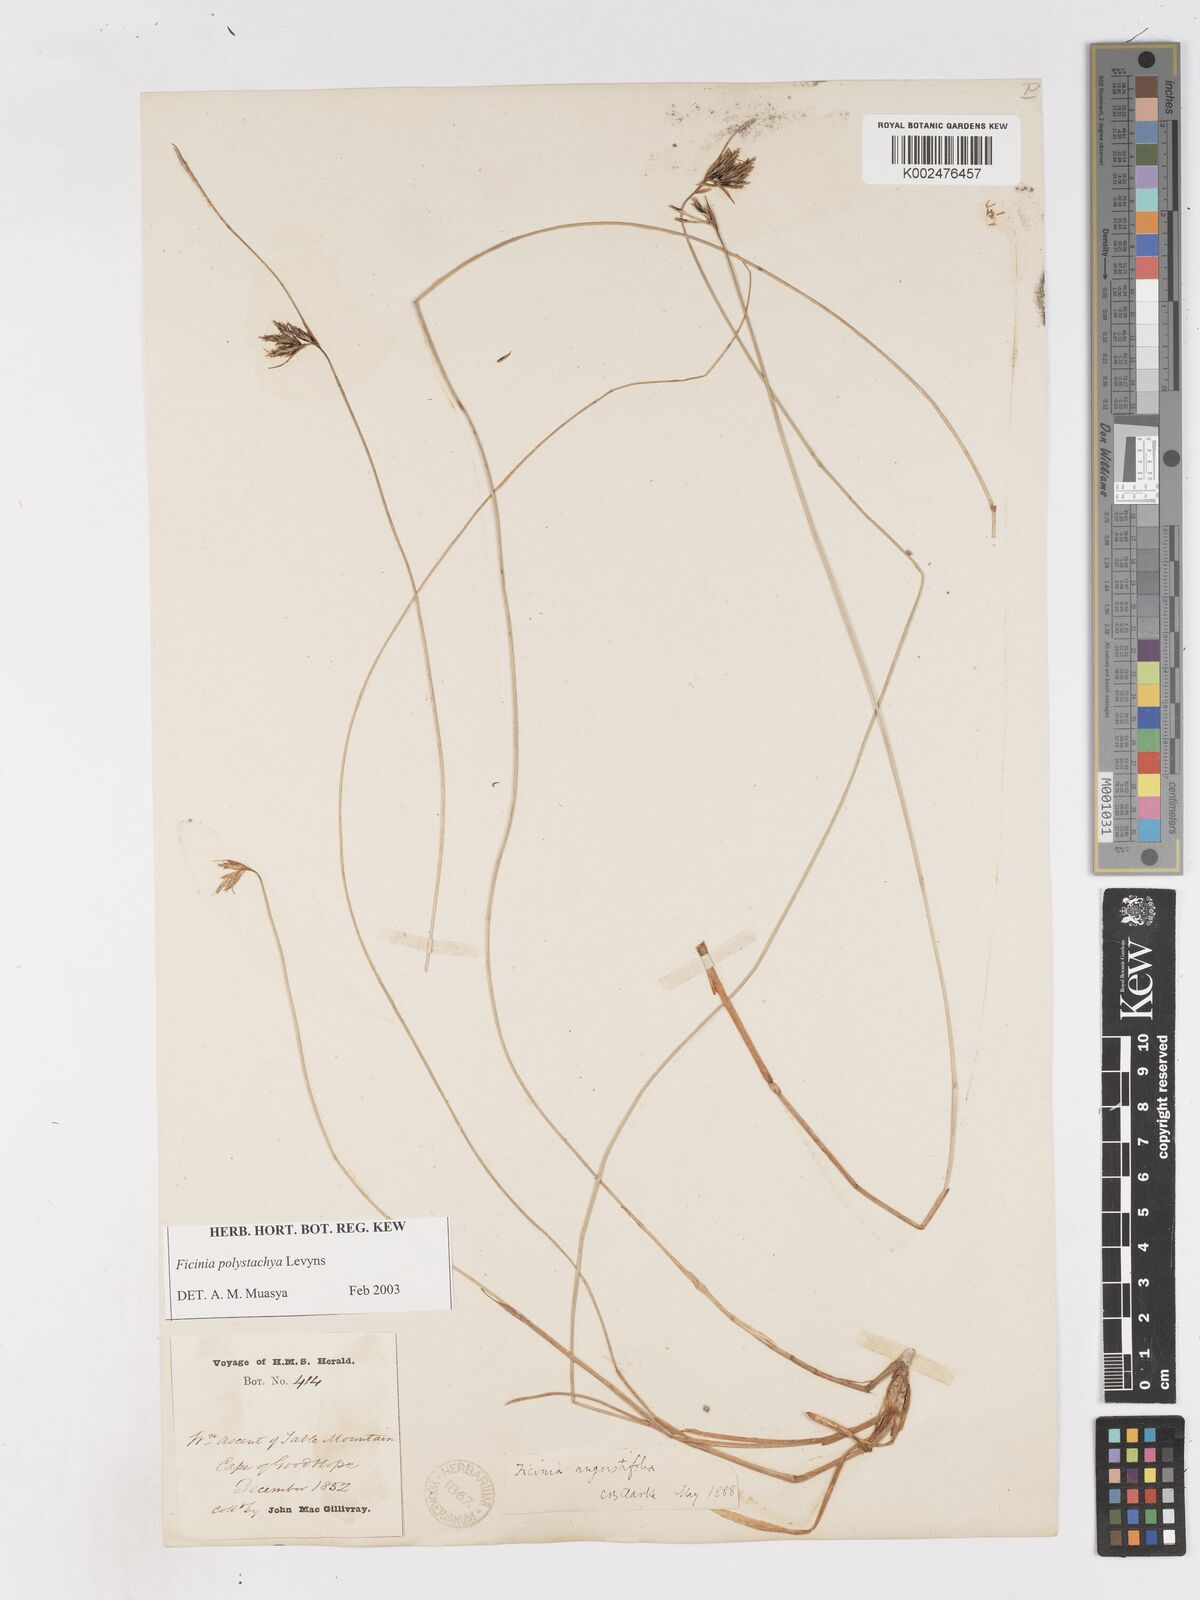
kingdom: Plantae
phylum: Tracheophyta
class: Liliopsida
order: Poales
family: Cyperaceae
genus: Ficinia
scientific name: Ficinia polystachya
